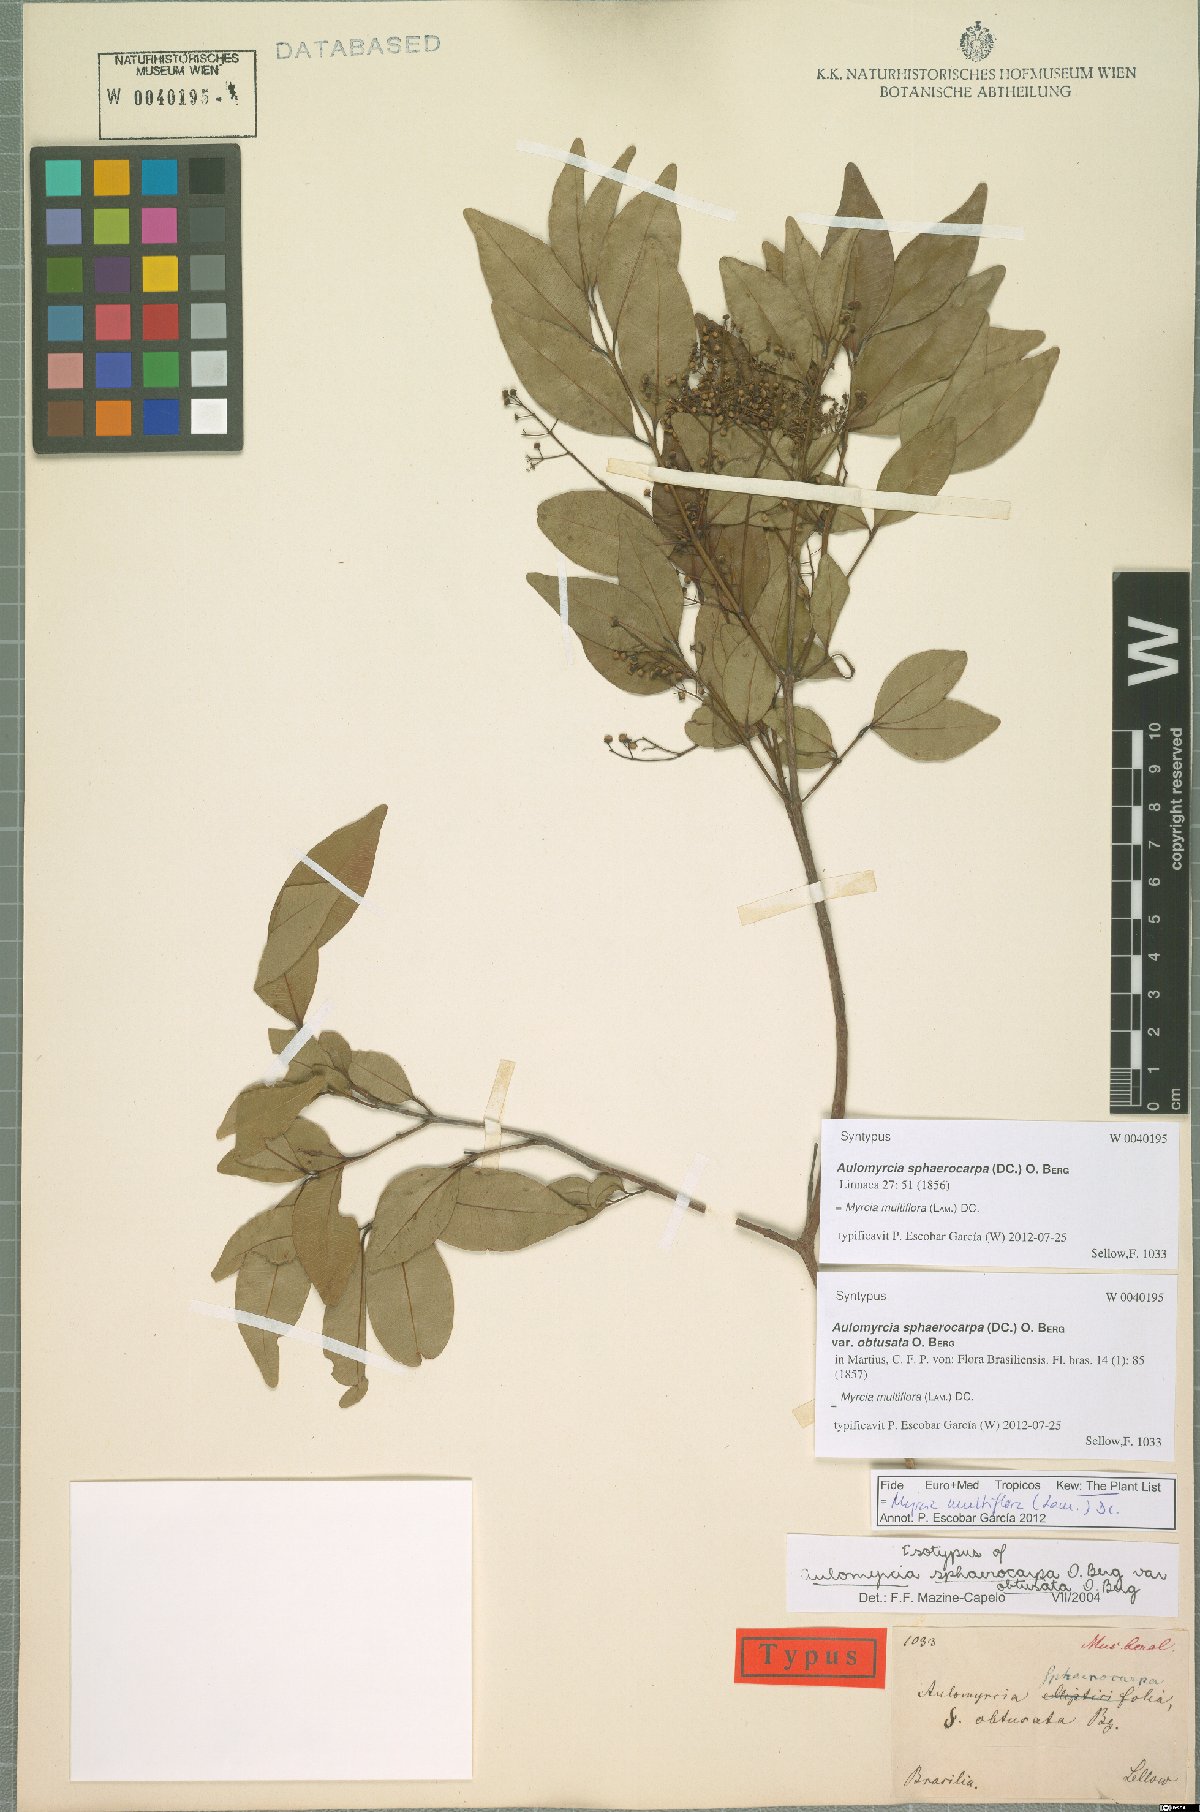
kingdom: Plantae
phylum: Tracheophyta
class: Magnoliopsida
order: Myrtales
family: Myrtaceae
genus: Myrcia
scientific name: Myrcia multiflora
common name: Pedra hume
